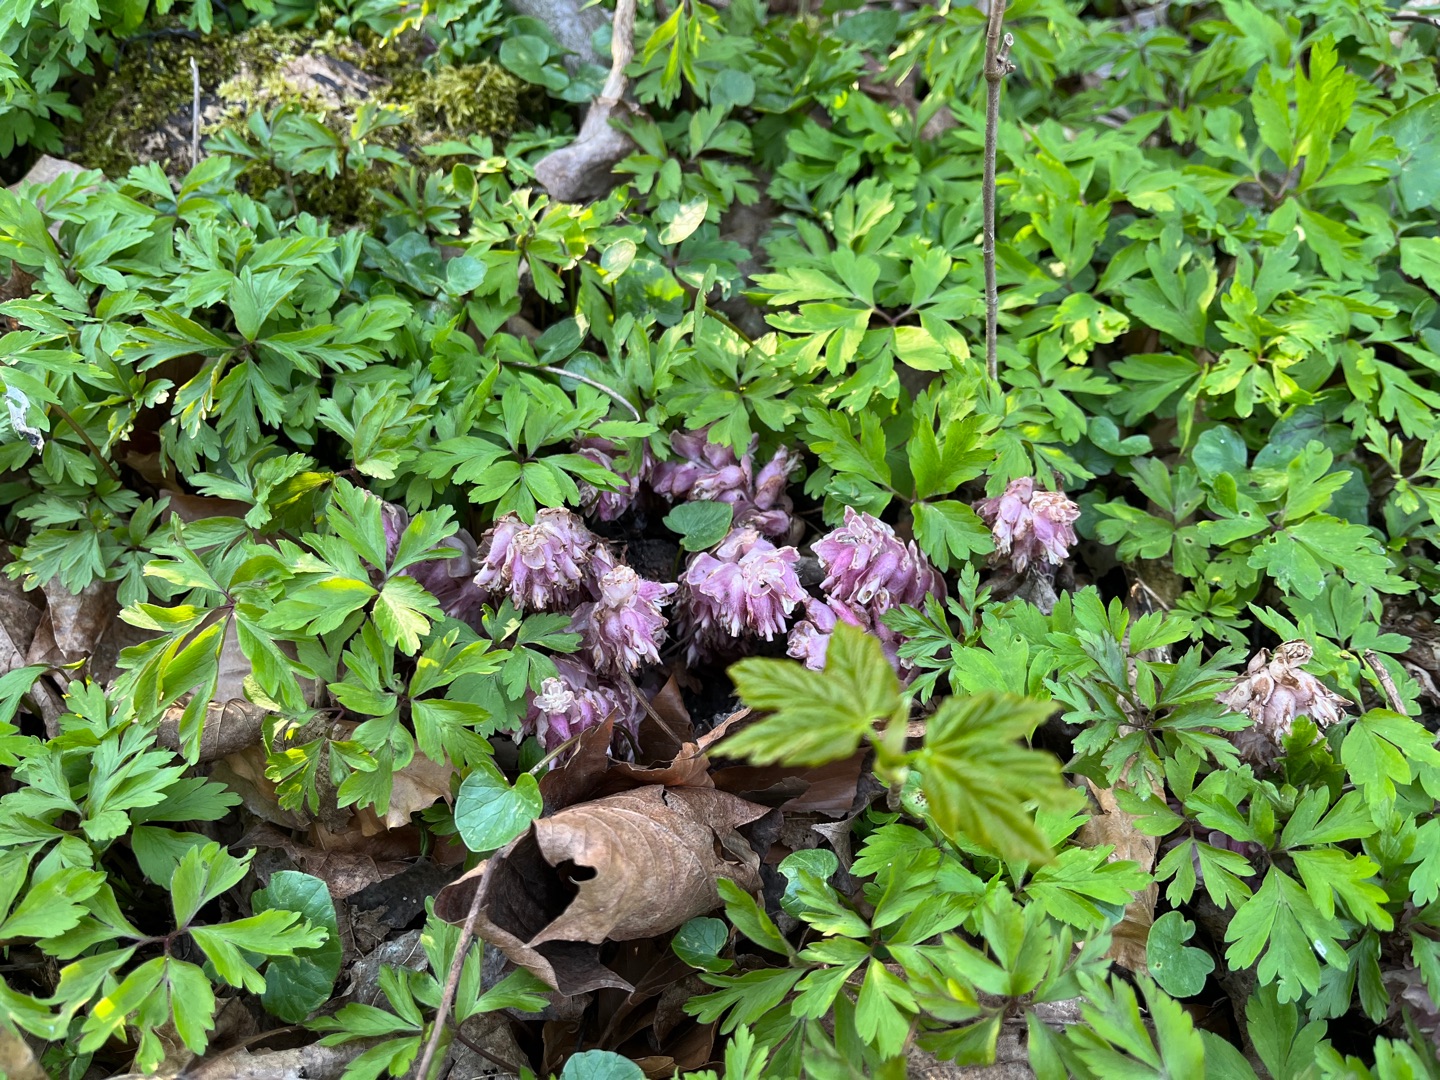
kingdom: Plantae
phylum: Tracheophyta
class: Magnoliopsida
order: Lamiales
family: Orobanchaceae
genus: Lathraea
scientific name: Lathraea squamaria
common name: Skælrod
